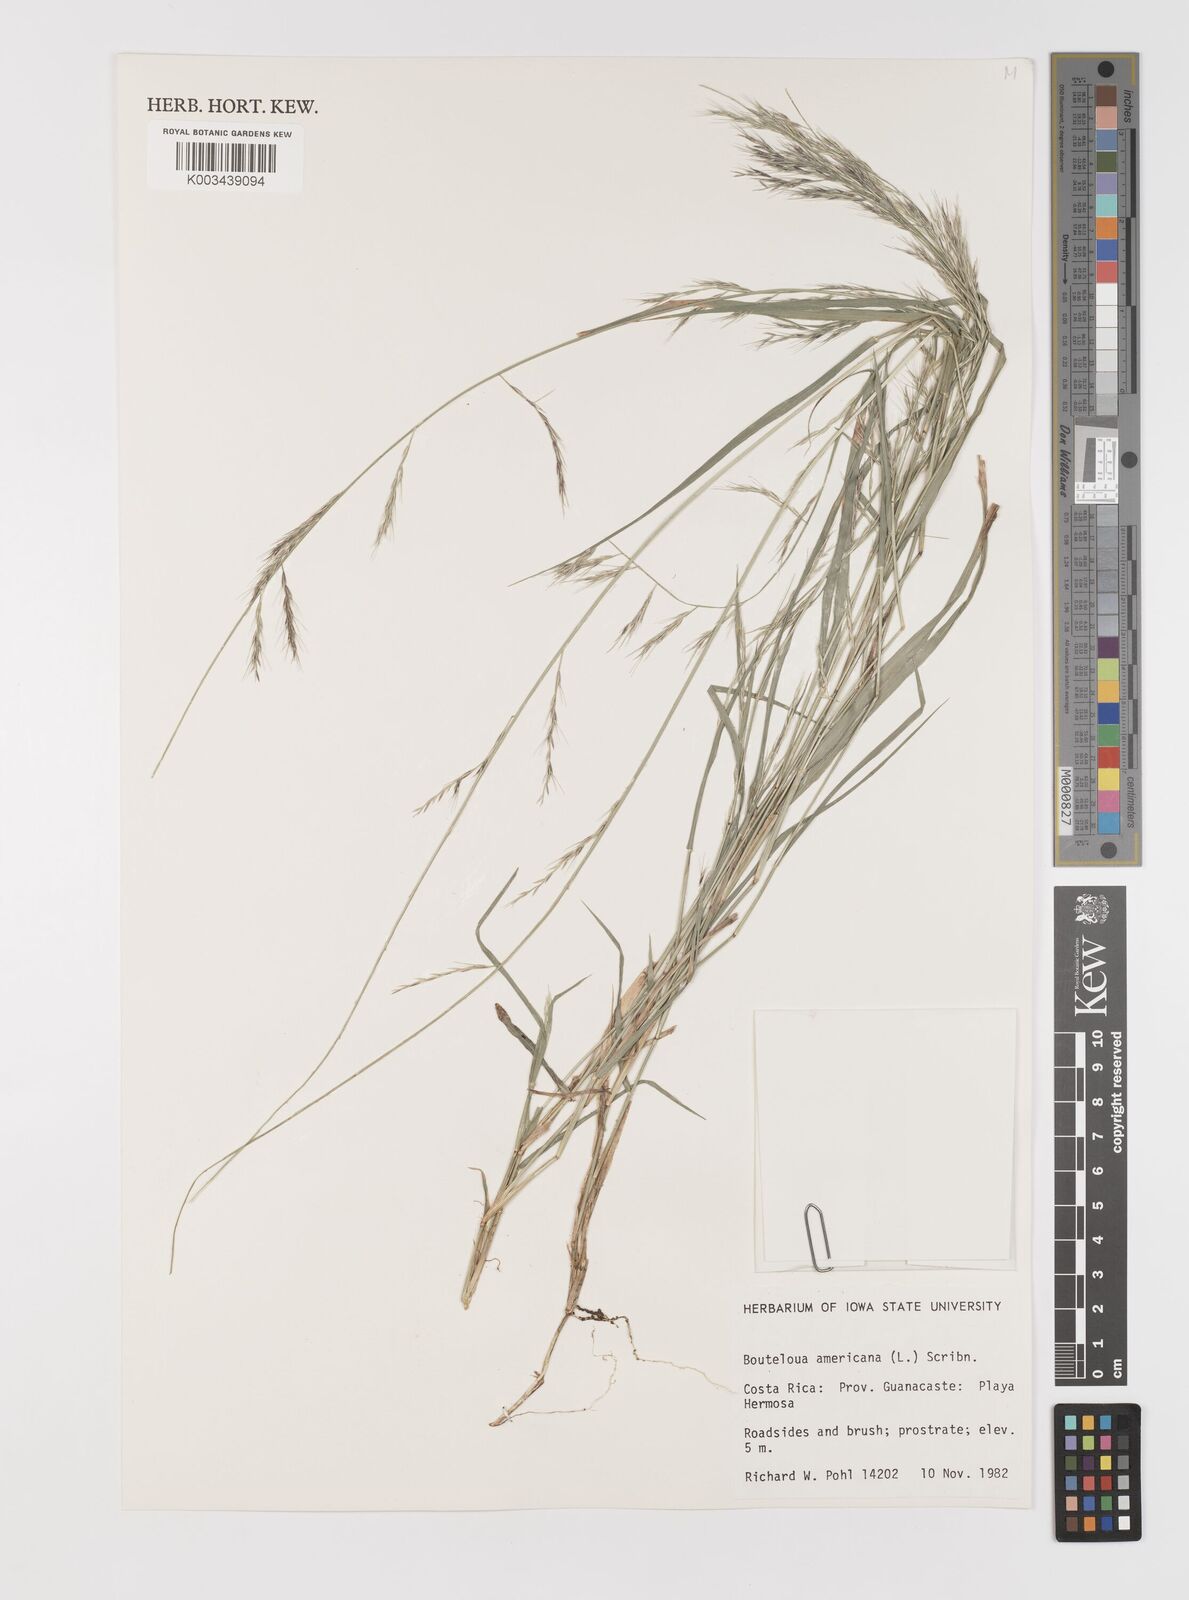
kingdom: Plantae
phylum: Tracheophyta
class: Liliopsida
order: Poales
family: Poaceae
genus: Bouteloua
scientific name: Bouteloua americana
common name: Mule grass
